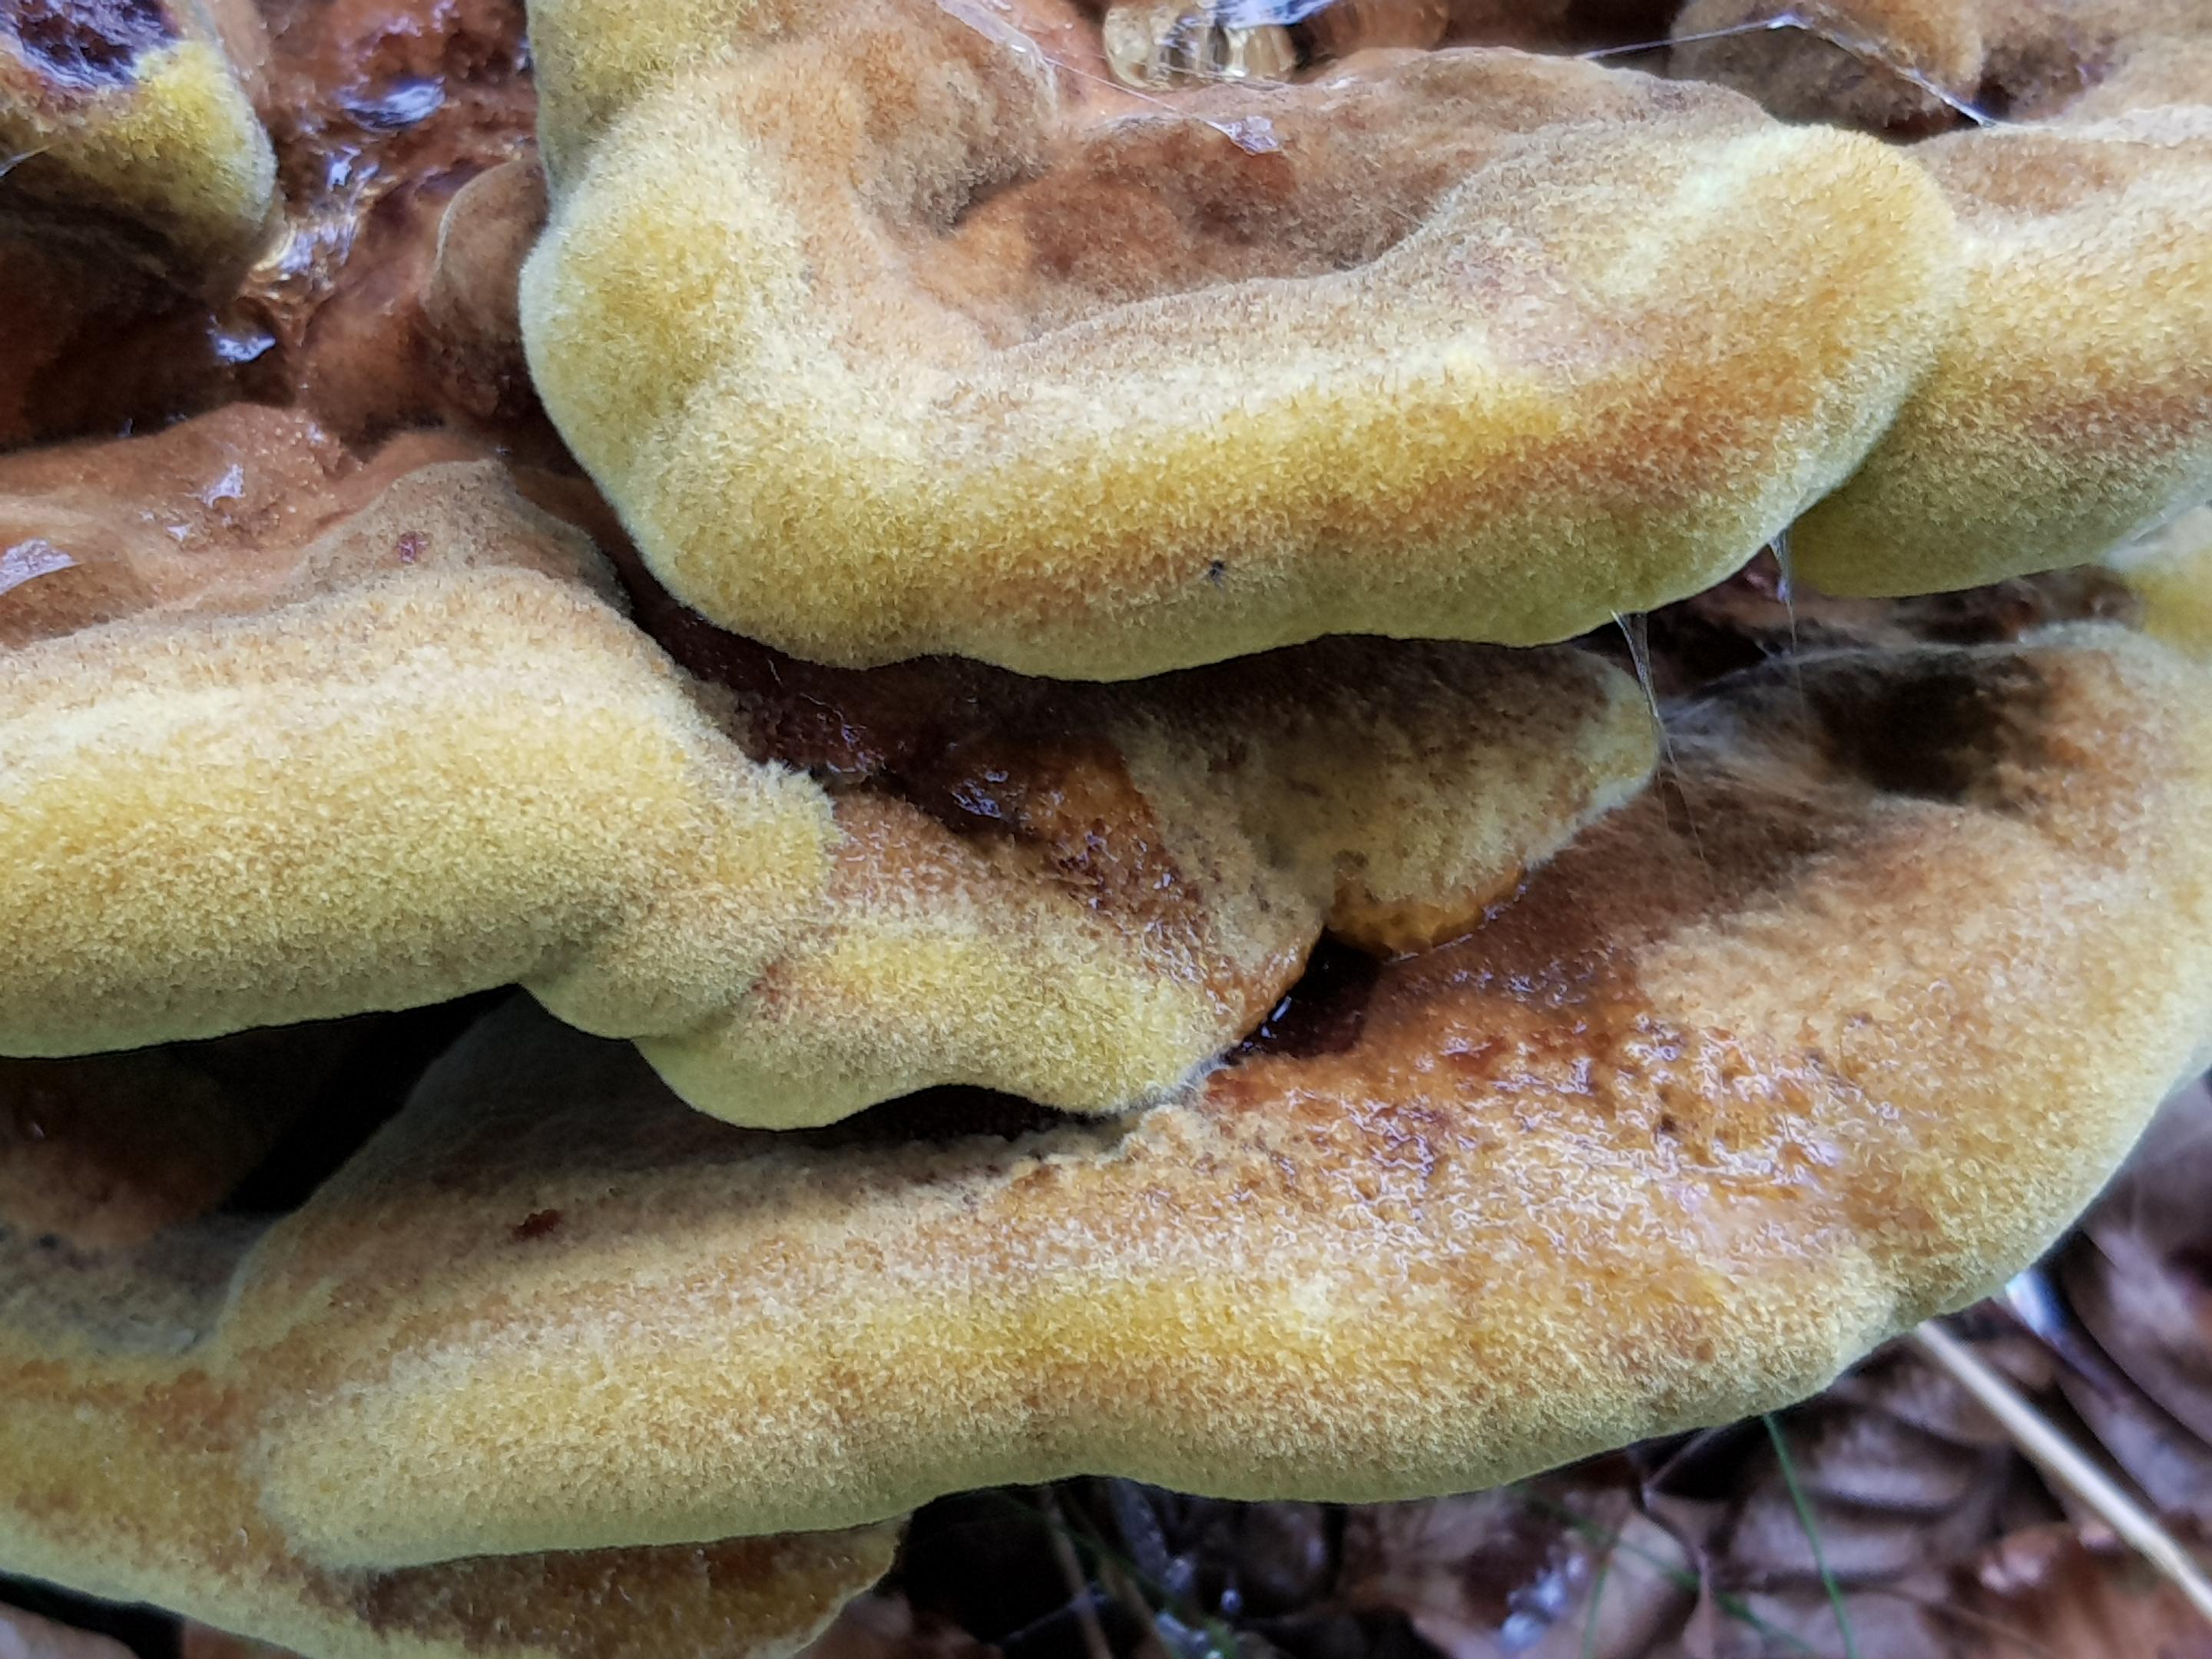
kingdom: Fungi
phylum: Basidiomycota
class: Agaricomycetes
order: Polyporales
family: Laetiporaceae
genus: Phaeolus
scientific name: Phaeolus schweinitzii
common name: brunporesvamp
